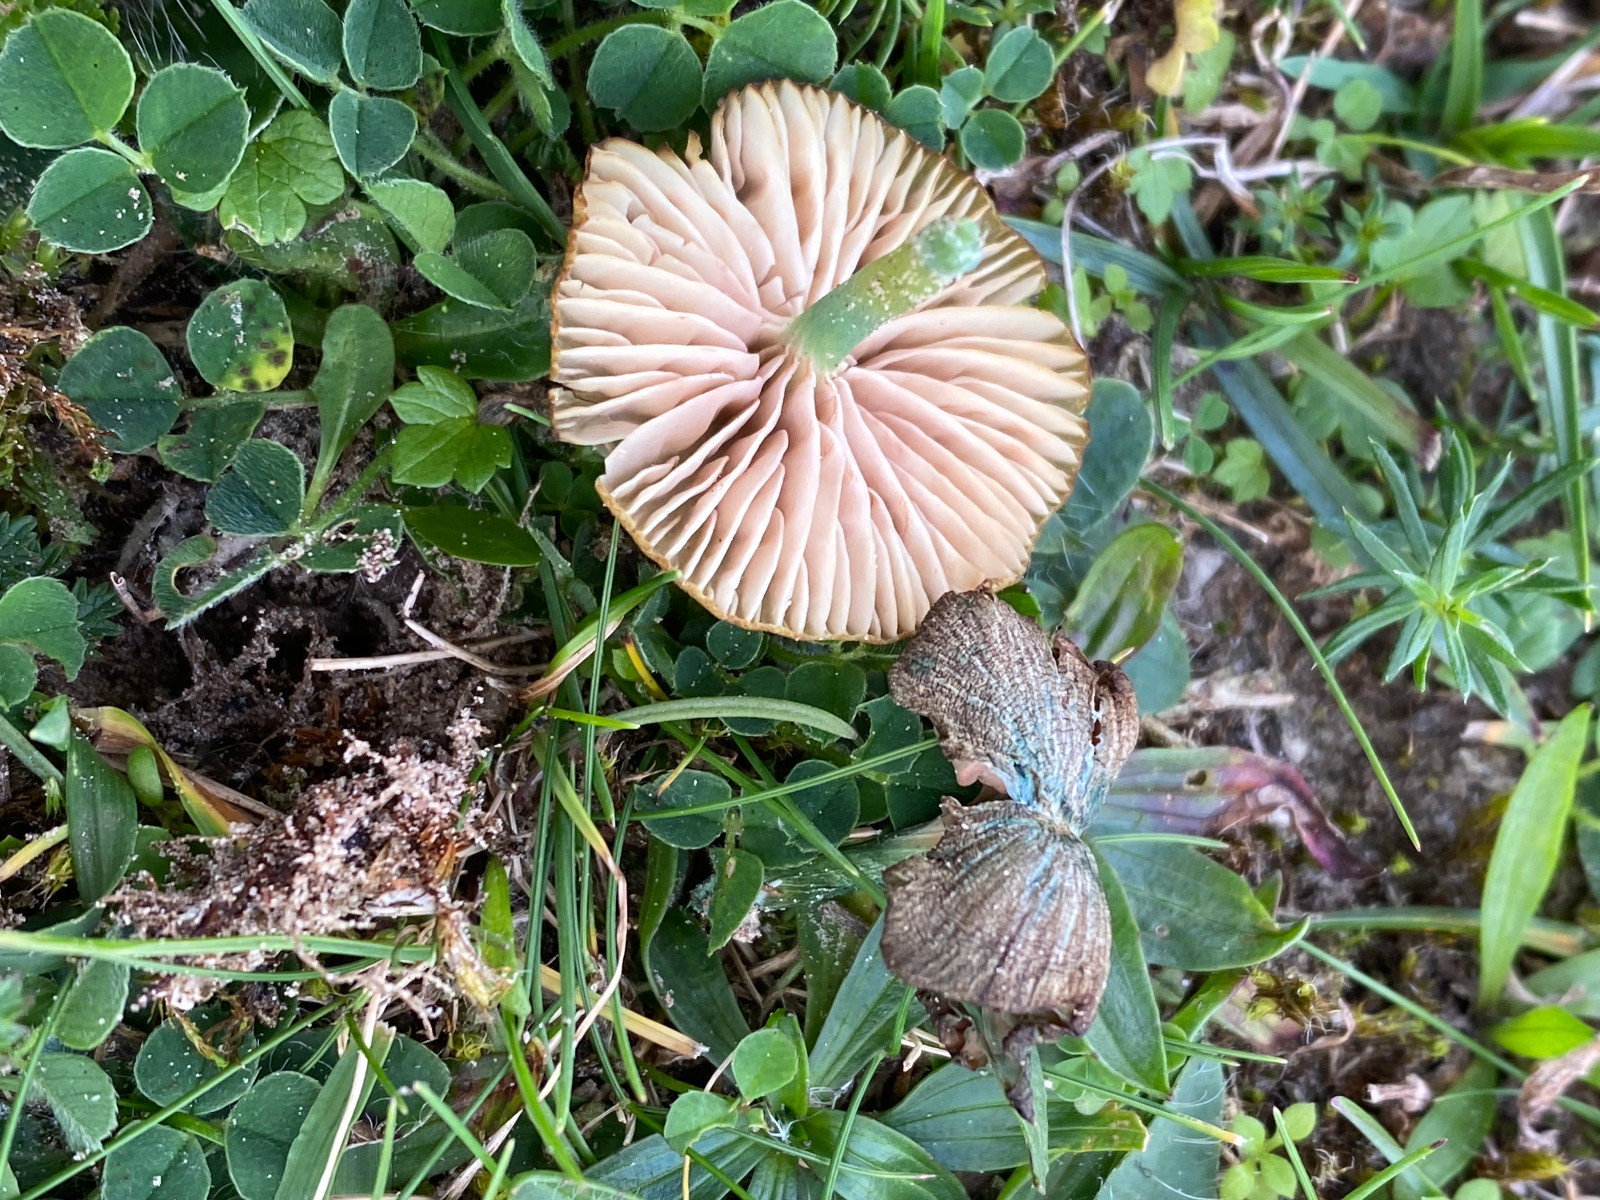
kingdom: Fungi
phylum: Basidiomycota
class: Agaricomycetes
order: Agaricales
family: Entolomataceae
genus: Entoloma
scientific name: Entoloma incanum
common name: grøngul rødblad
